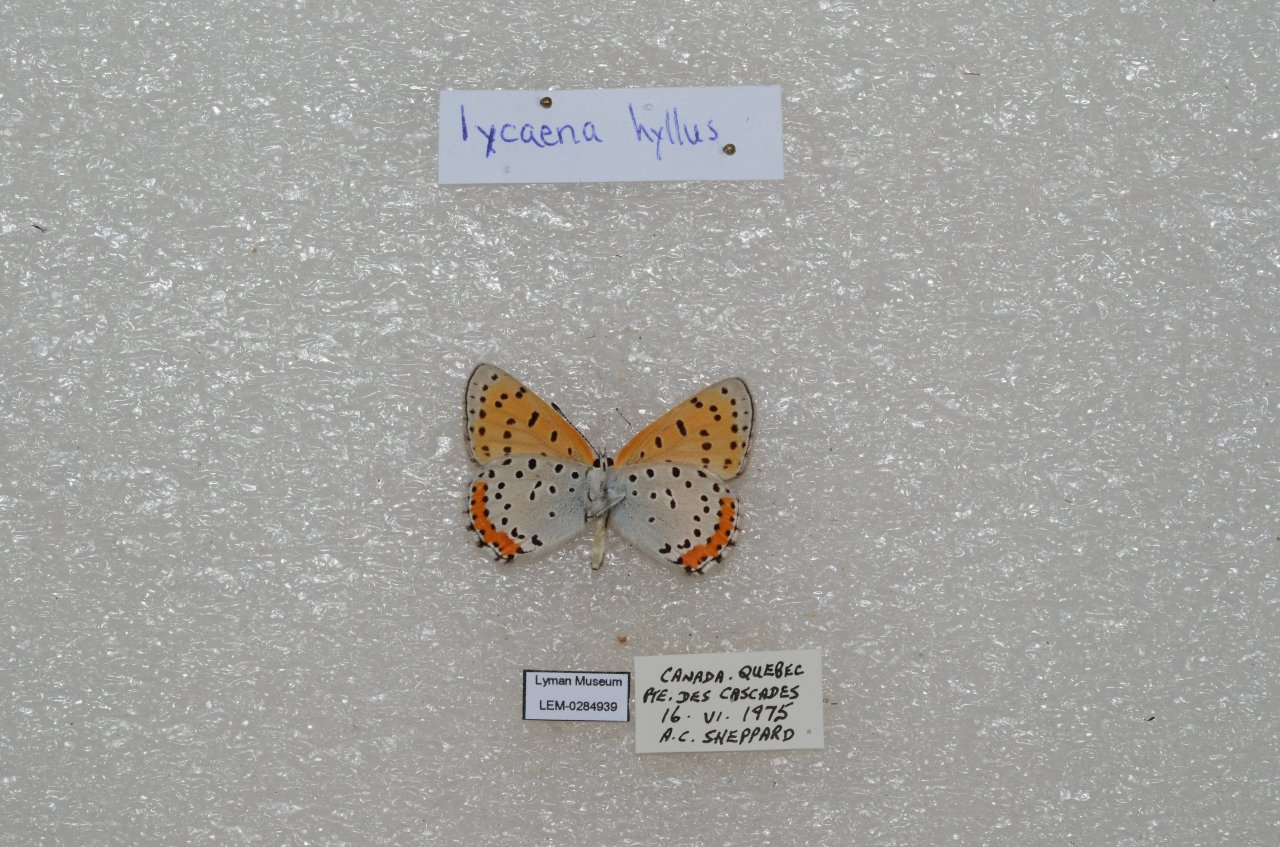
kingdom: Animalia
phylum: Arthropoda
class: Insecta
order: Lepidoptera
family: Sesiidae
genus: Sesia
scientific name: Sesia Lycaena hyllus
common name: Bronze Copper
